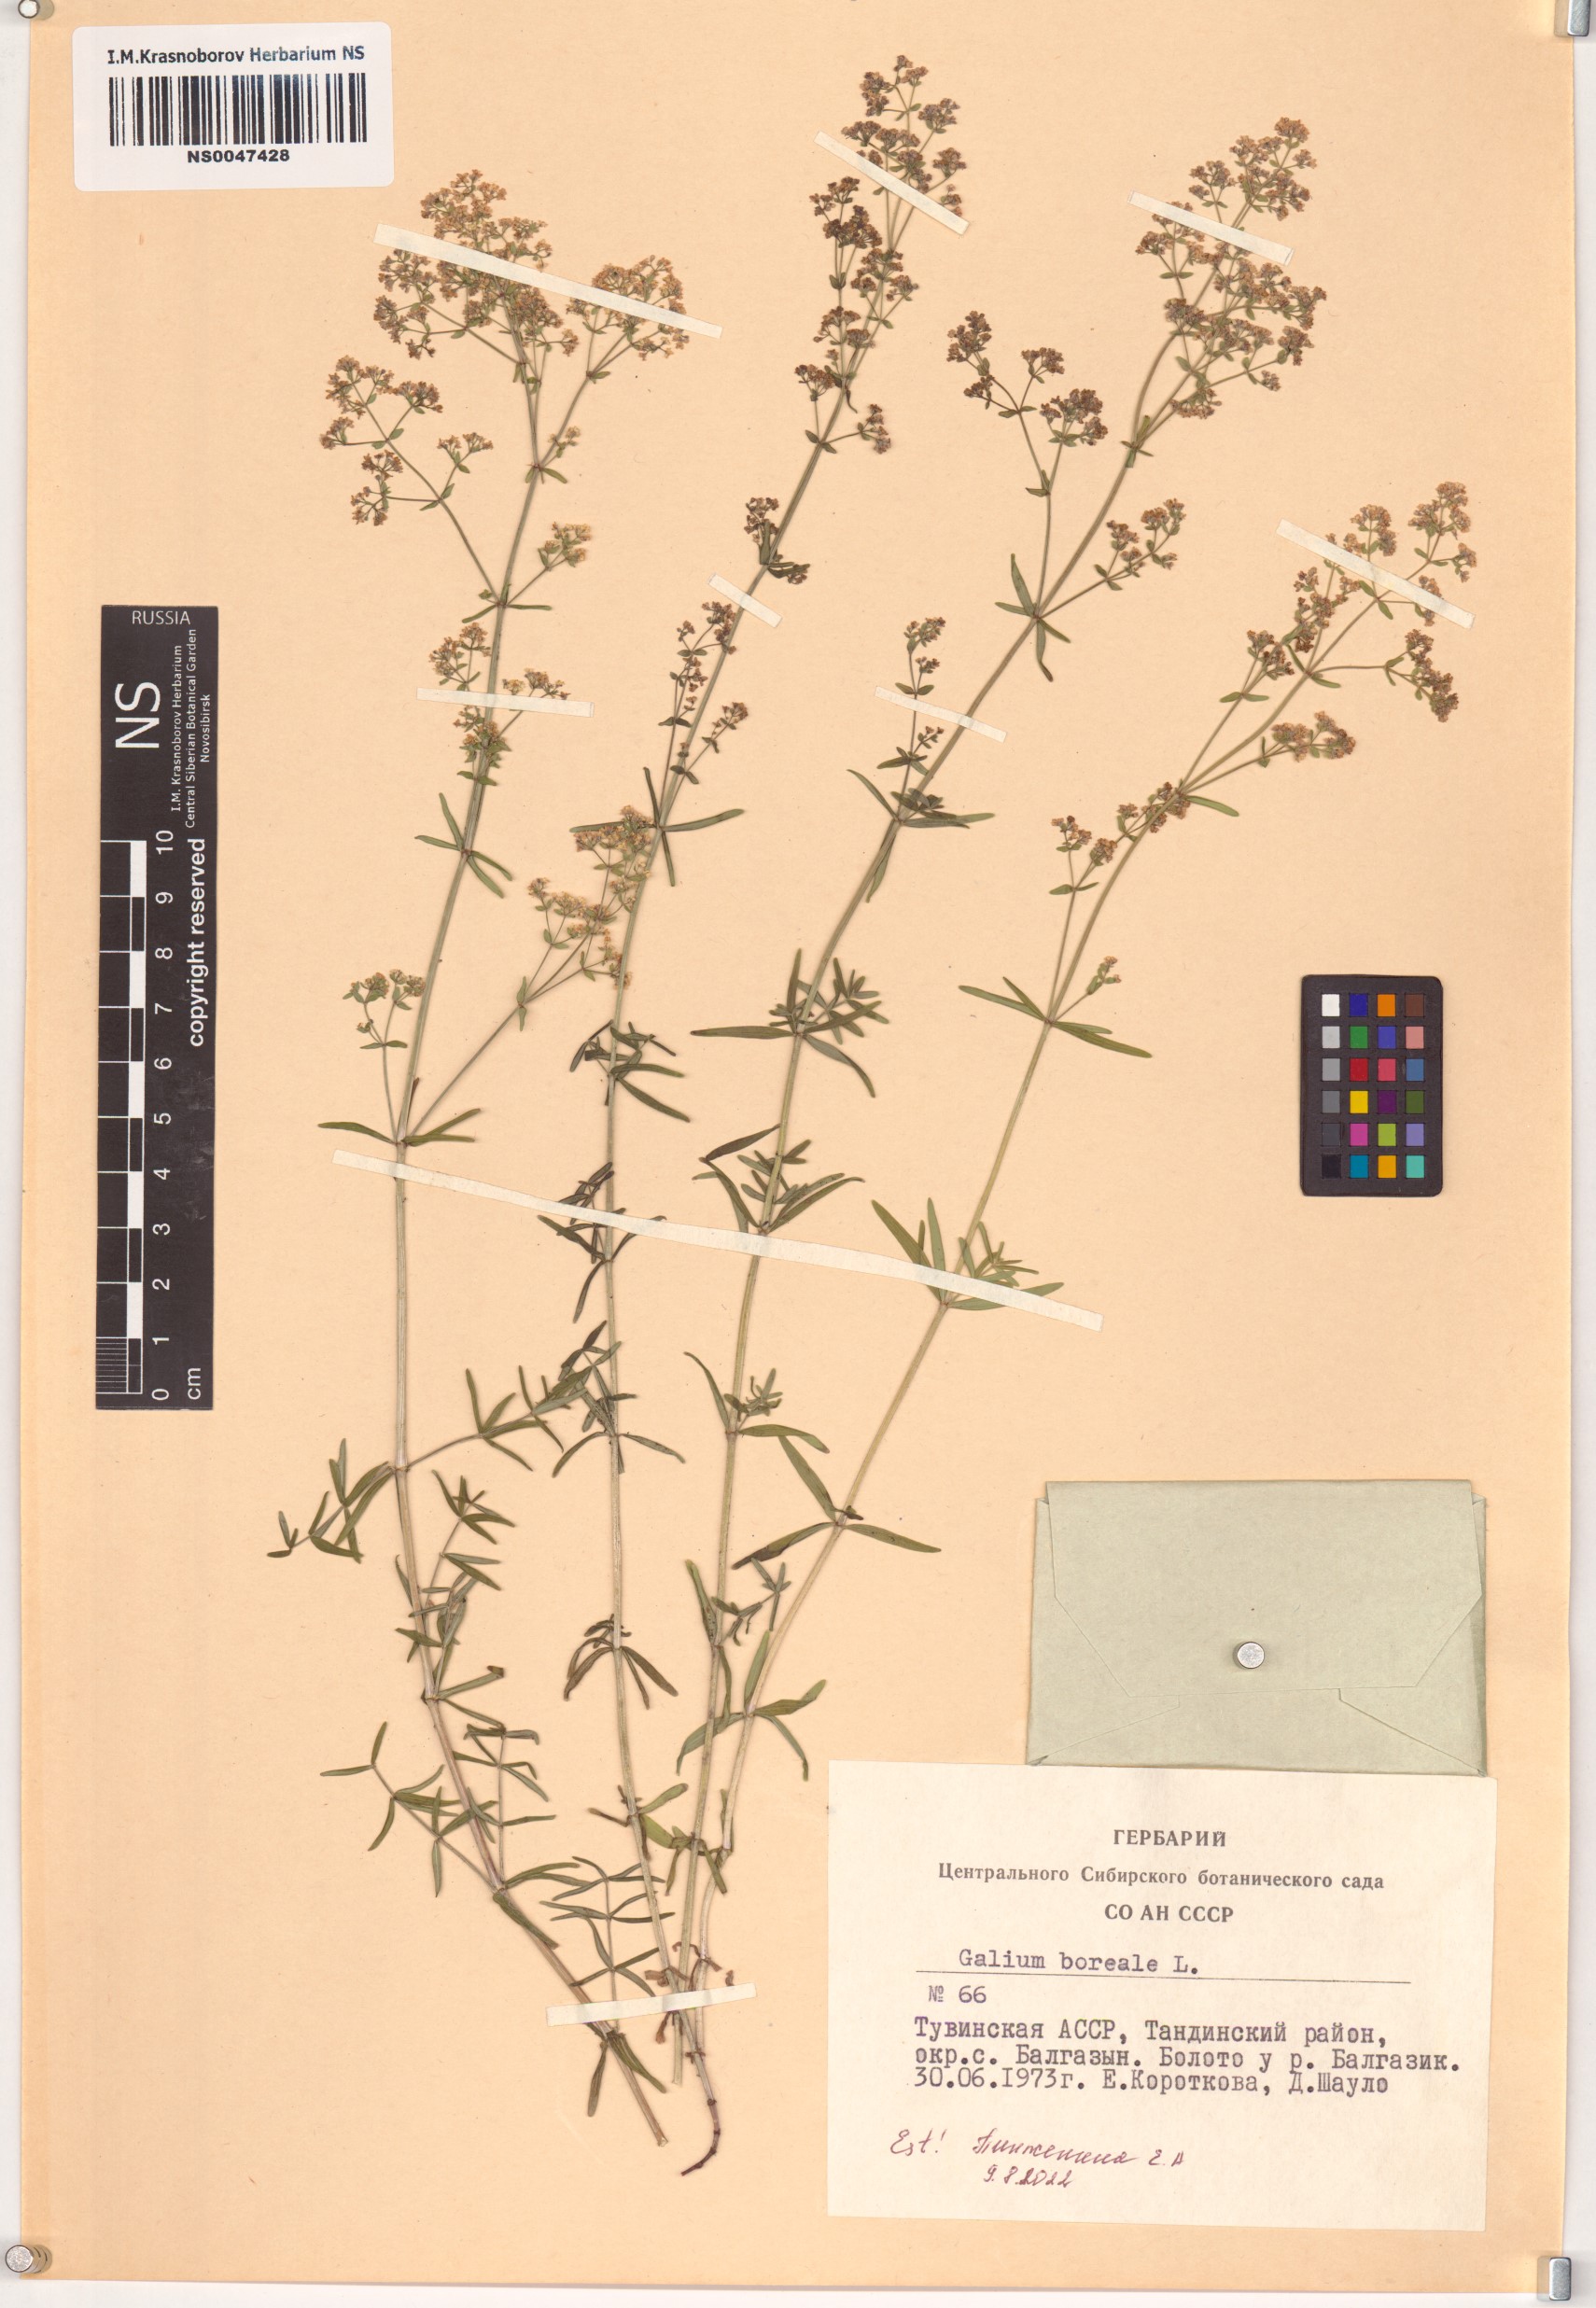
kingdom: Plantae
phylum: Tracheophyta
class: Magnoliopsida
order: Gentianales
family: Rubiaceae
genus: Galium
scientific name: Galium boreale
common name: Northern bedstraw
